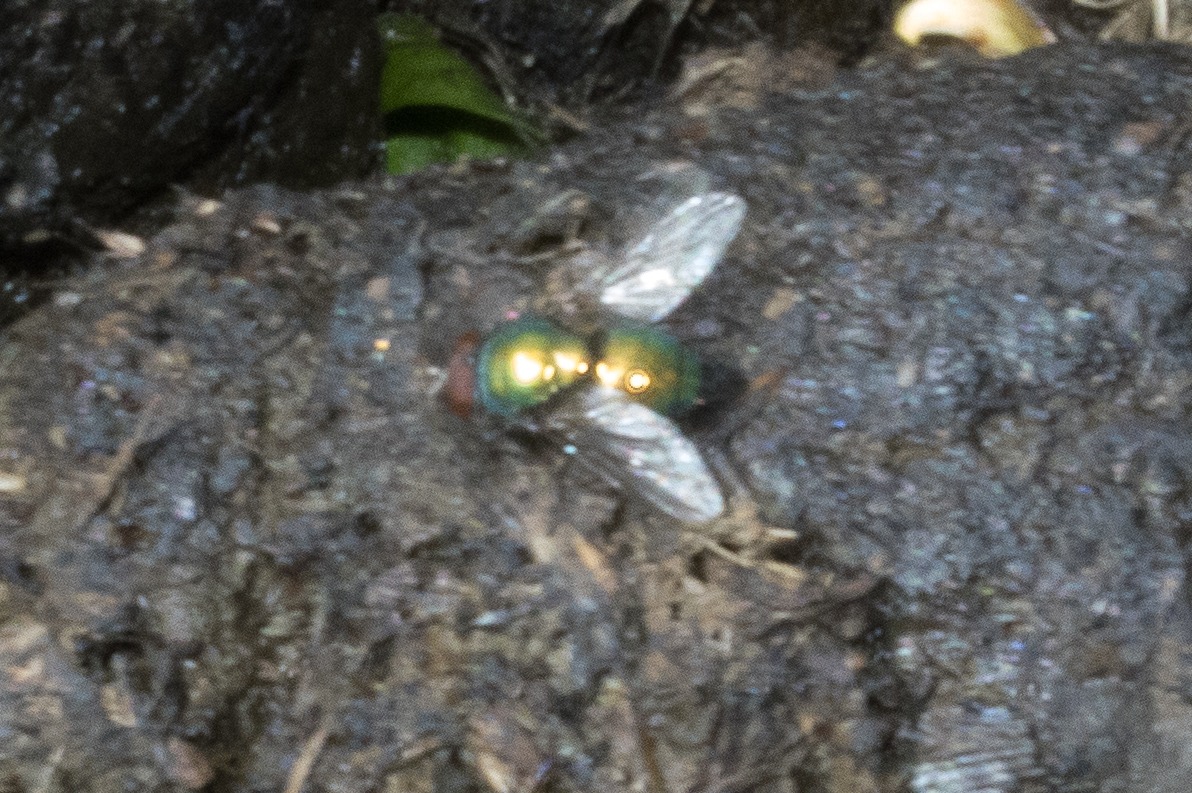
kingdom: Animalia
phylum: Arthropoda
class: Insecta
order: Diptera
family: Calliphoridae
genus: Lucilia
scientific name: Lucilia
